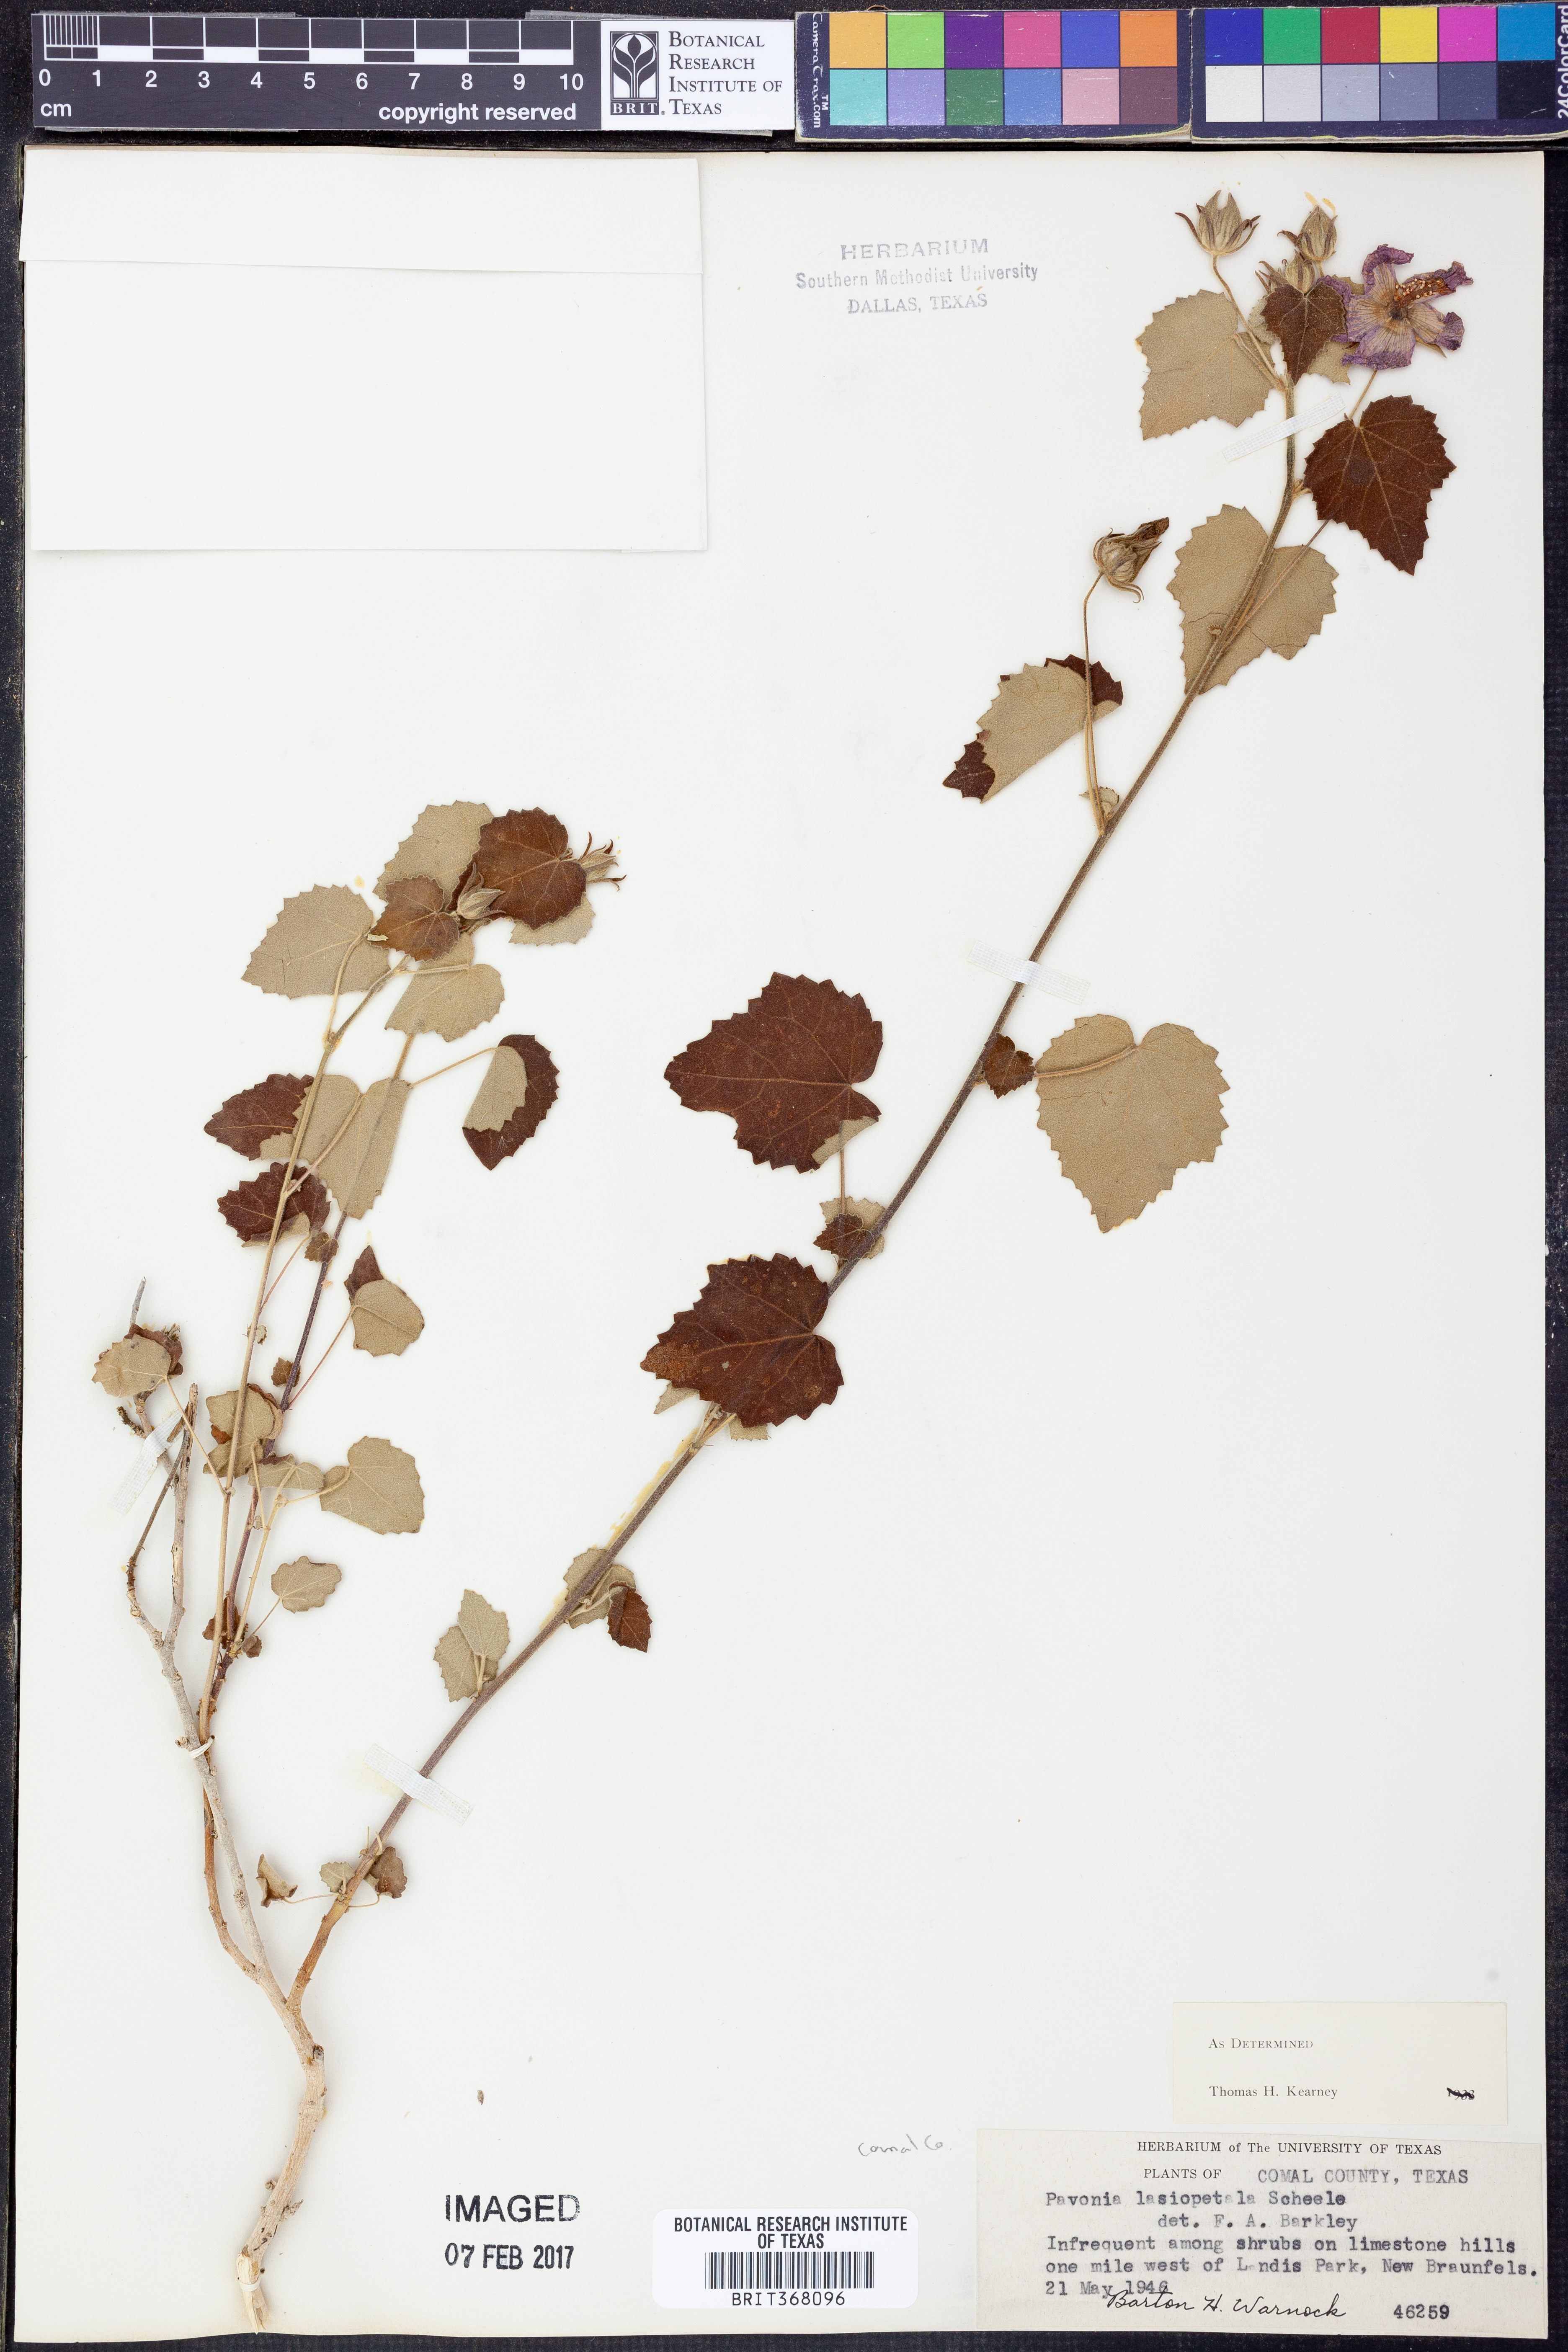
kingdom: Plantae
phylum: Tracheophyta
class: Magnoliopsida
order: Malvales
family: Malvaceae
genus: Pavonia
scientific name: Pavonia lasiopetala
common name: Texas swamp-mallow
